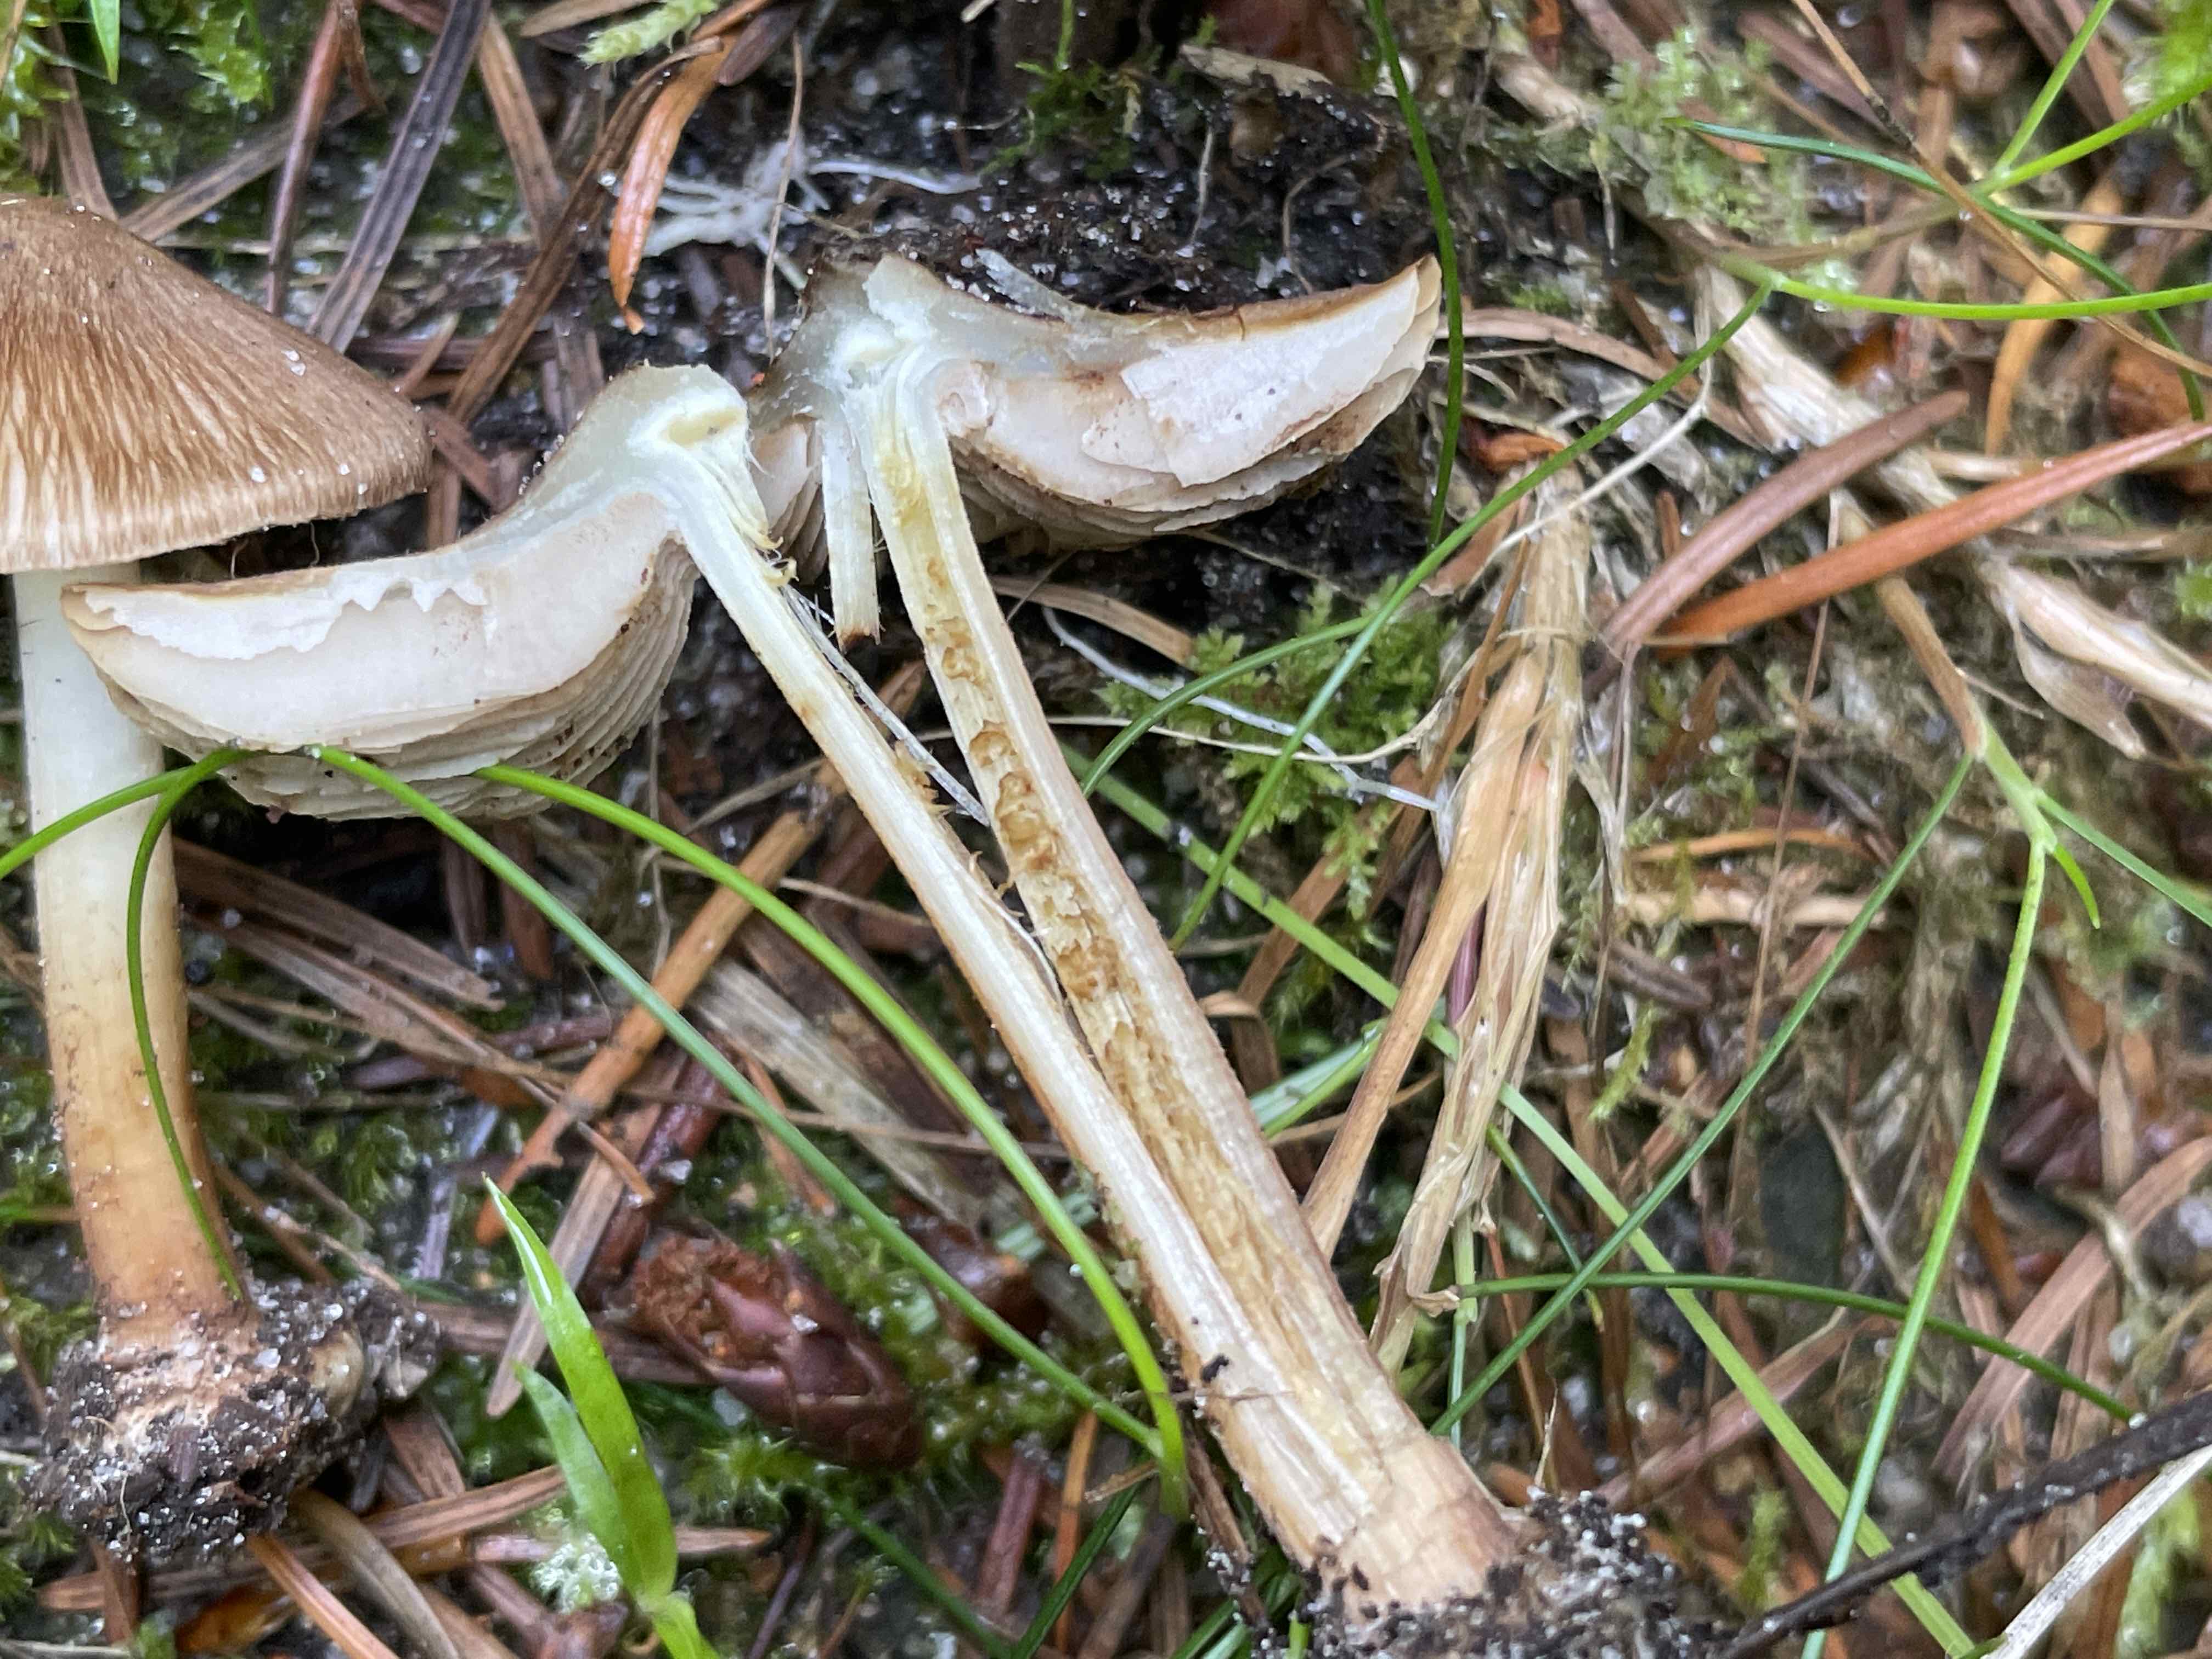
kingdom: Fungi
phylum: Basidiomycota
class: Agaricomycetes
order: Agaricales
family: Inocybaceae
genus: Inocybe
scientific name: Inocybe
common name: trævlhat
